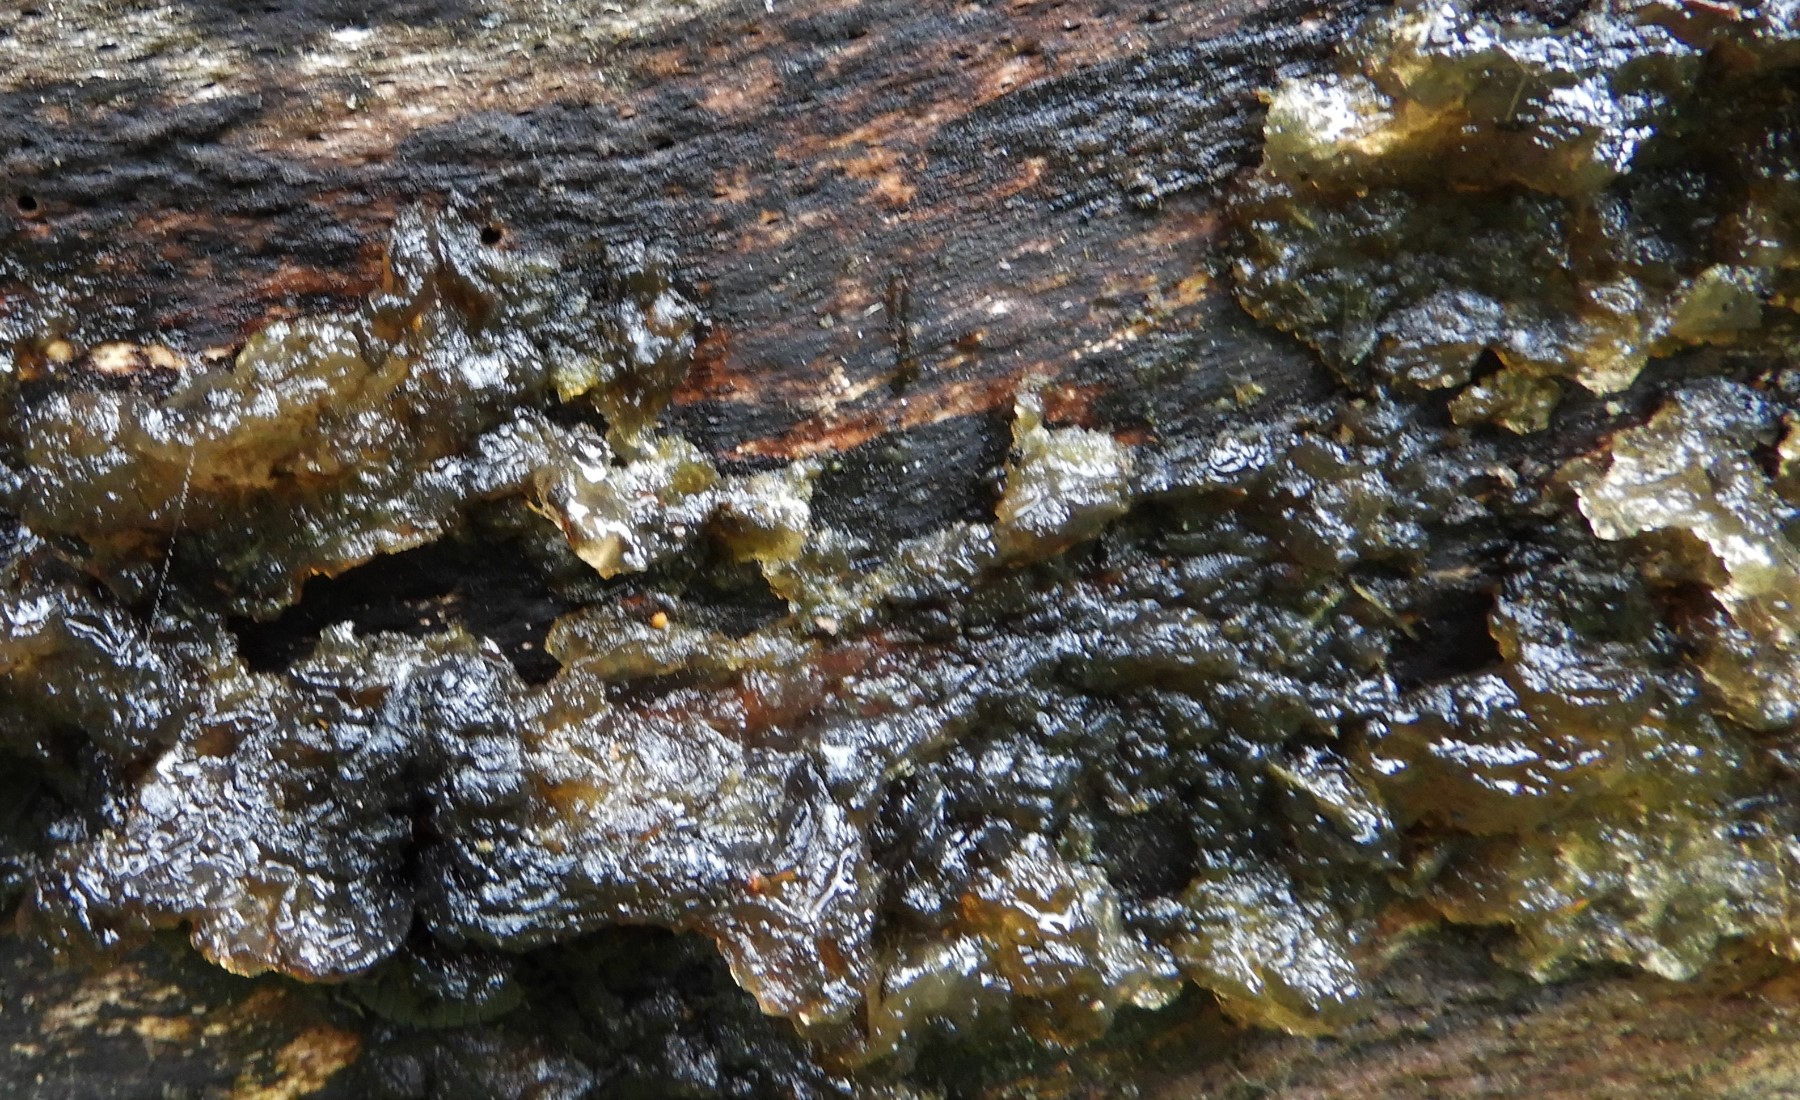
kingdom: Fungi
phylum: Basidiomycota
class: Agaricomycetes
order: Auriculariales
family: Auriculariaceae
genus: Exidia
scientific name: Exidia nigricans
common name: almindelig bævretop
